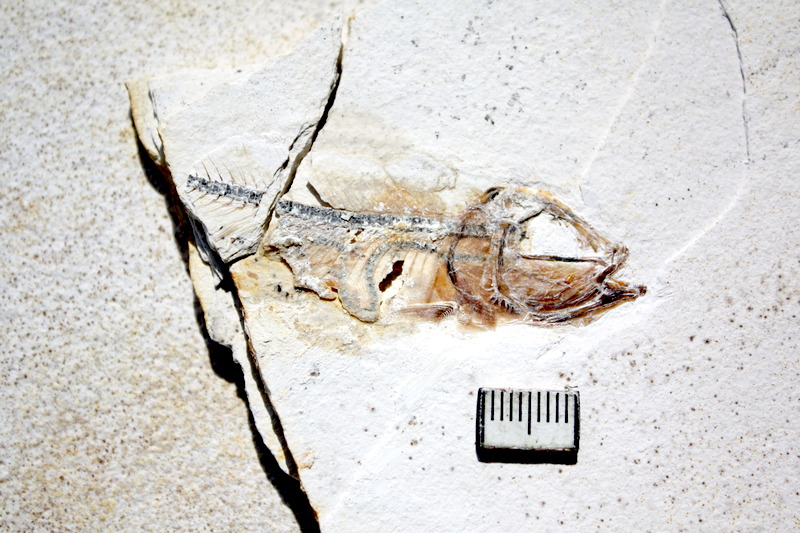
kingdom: Animalia
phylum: Chordata
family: Ascalaboidae
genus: Ebertichthys
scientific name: Ebertichthys ettlingensis
